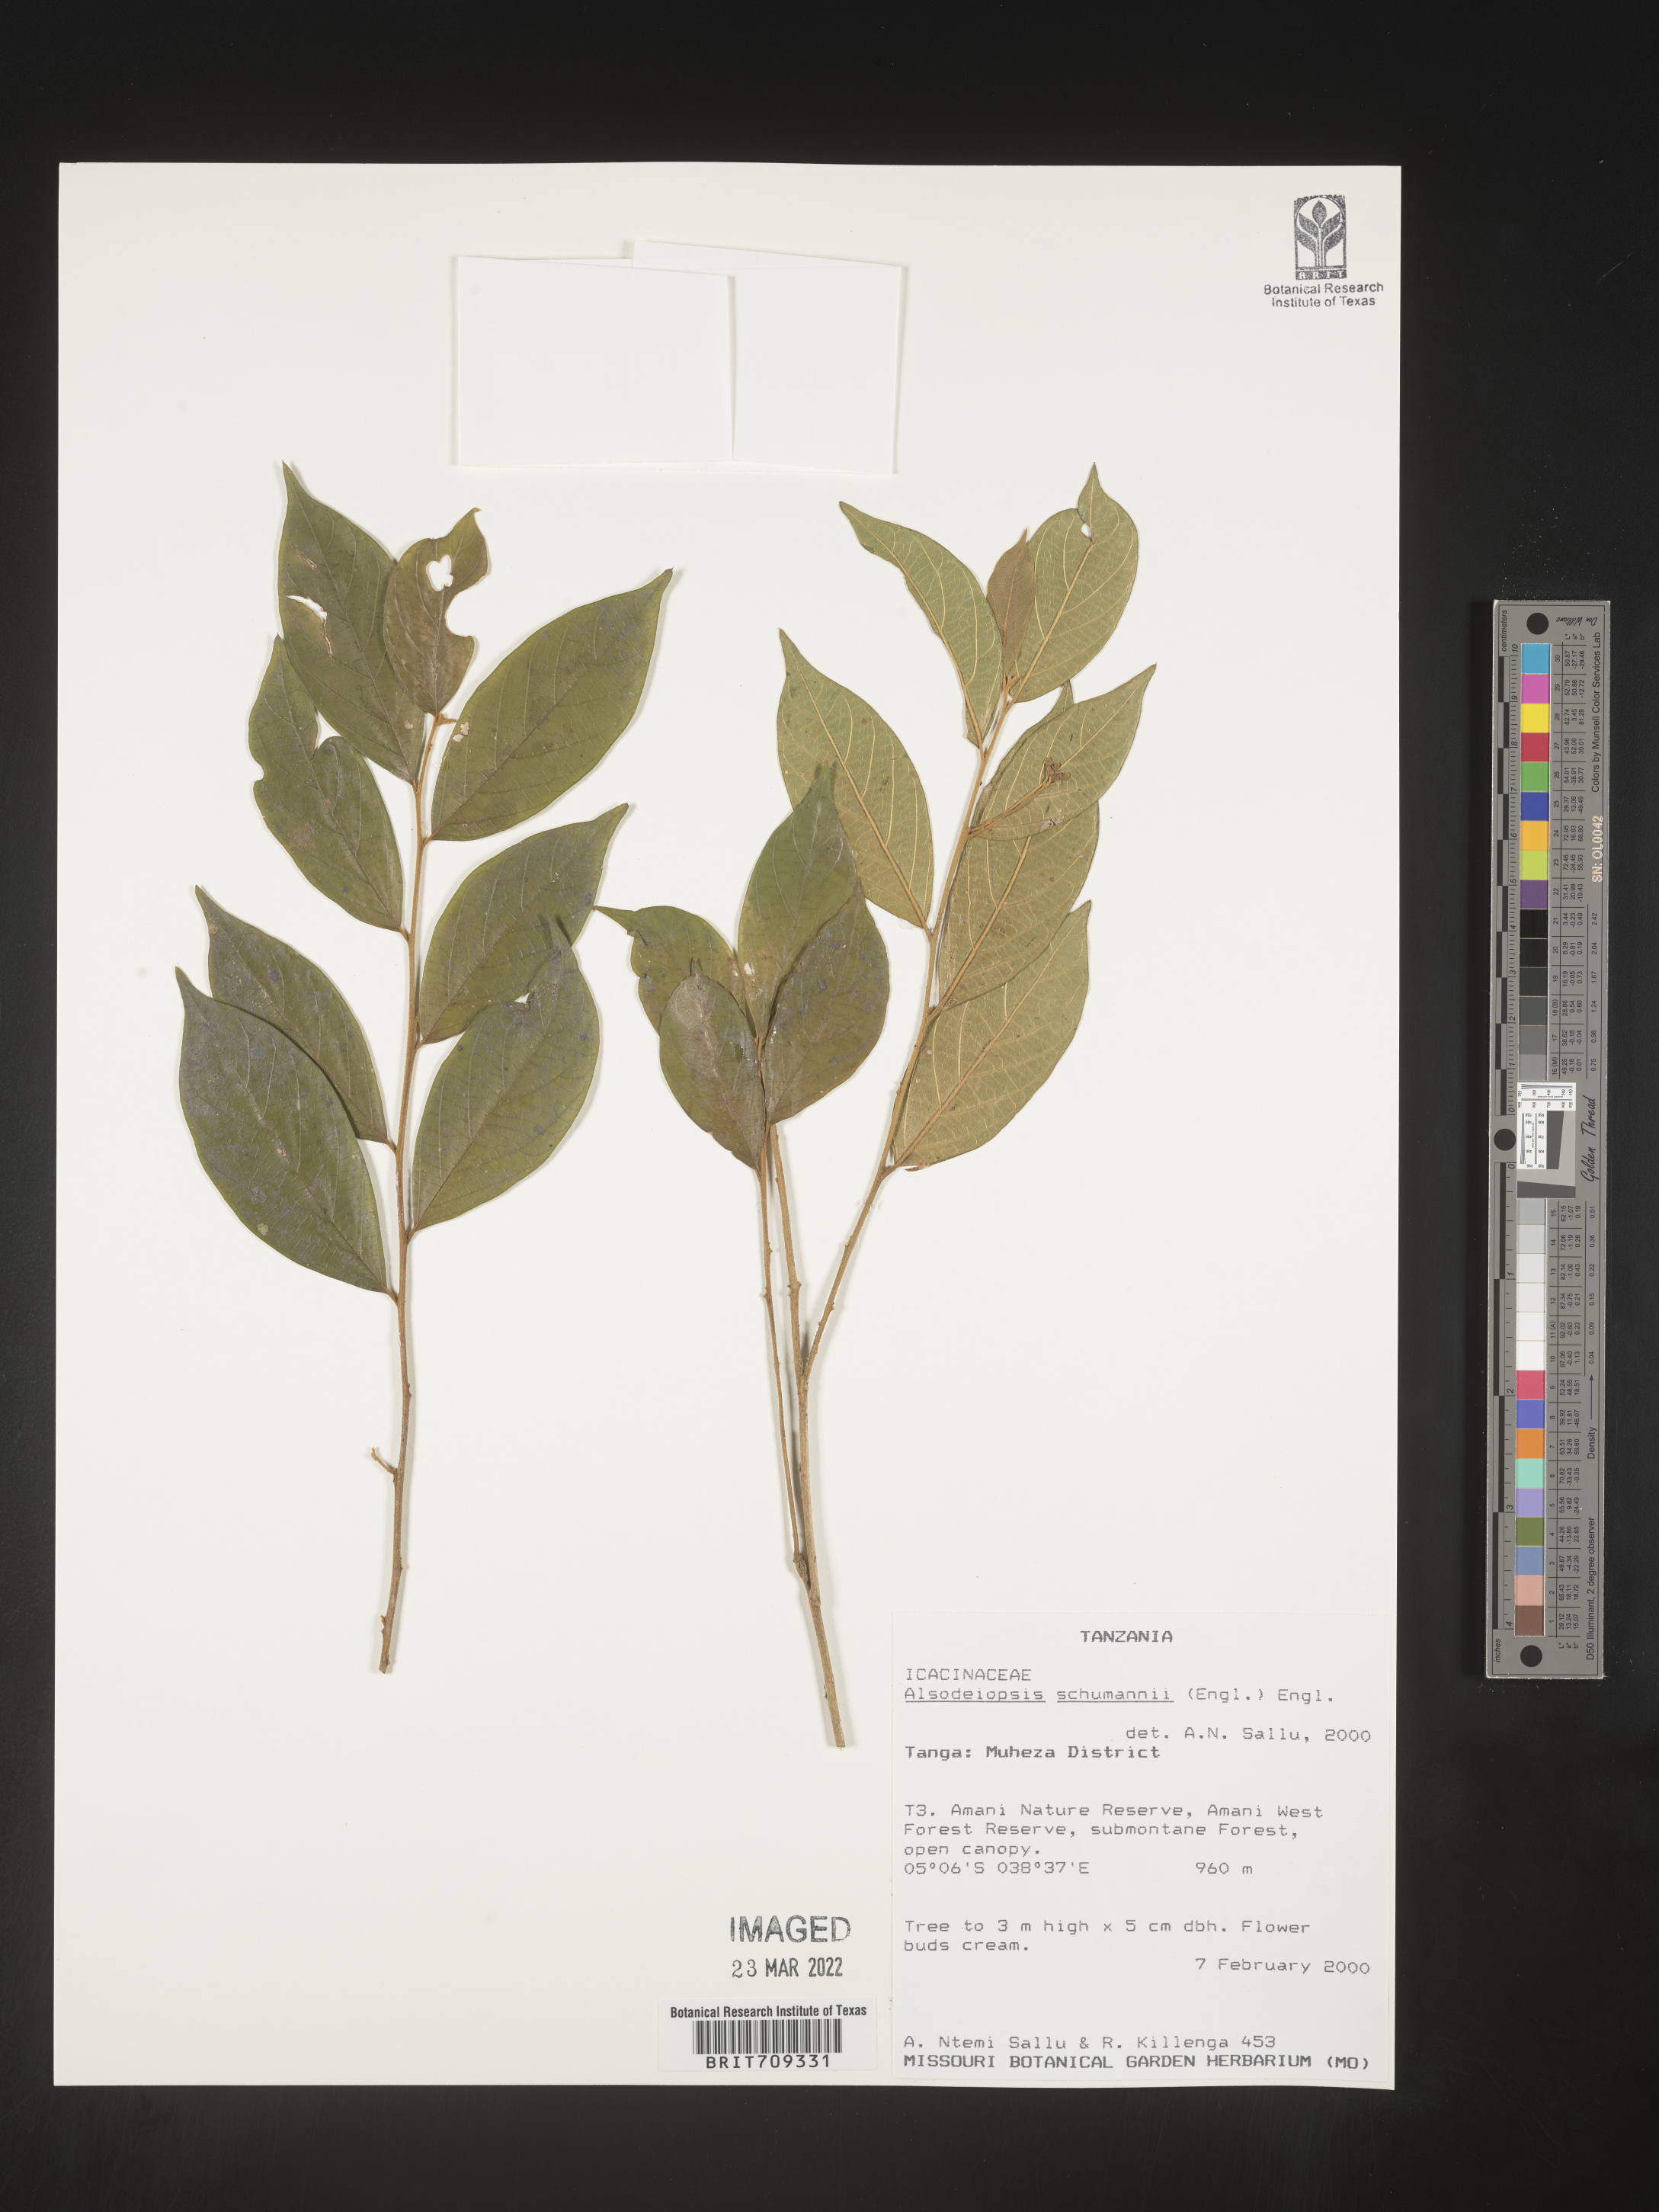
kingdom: Plantae
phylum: Tracheophyta
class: Magnoliopsida
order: Icacinales
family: Icacinaceae
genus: Alsodeiopsis
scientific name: Alsodeiopsis
